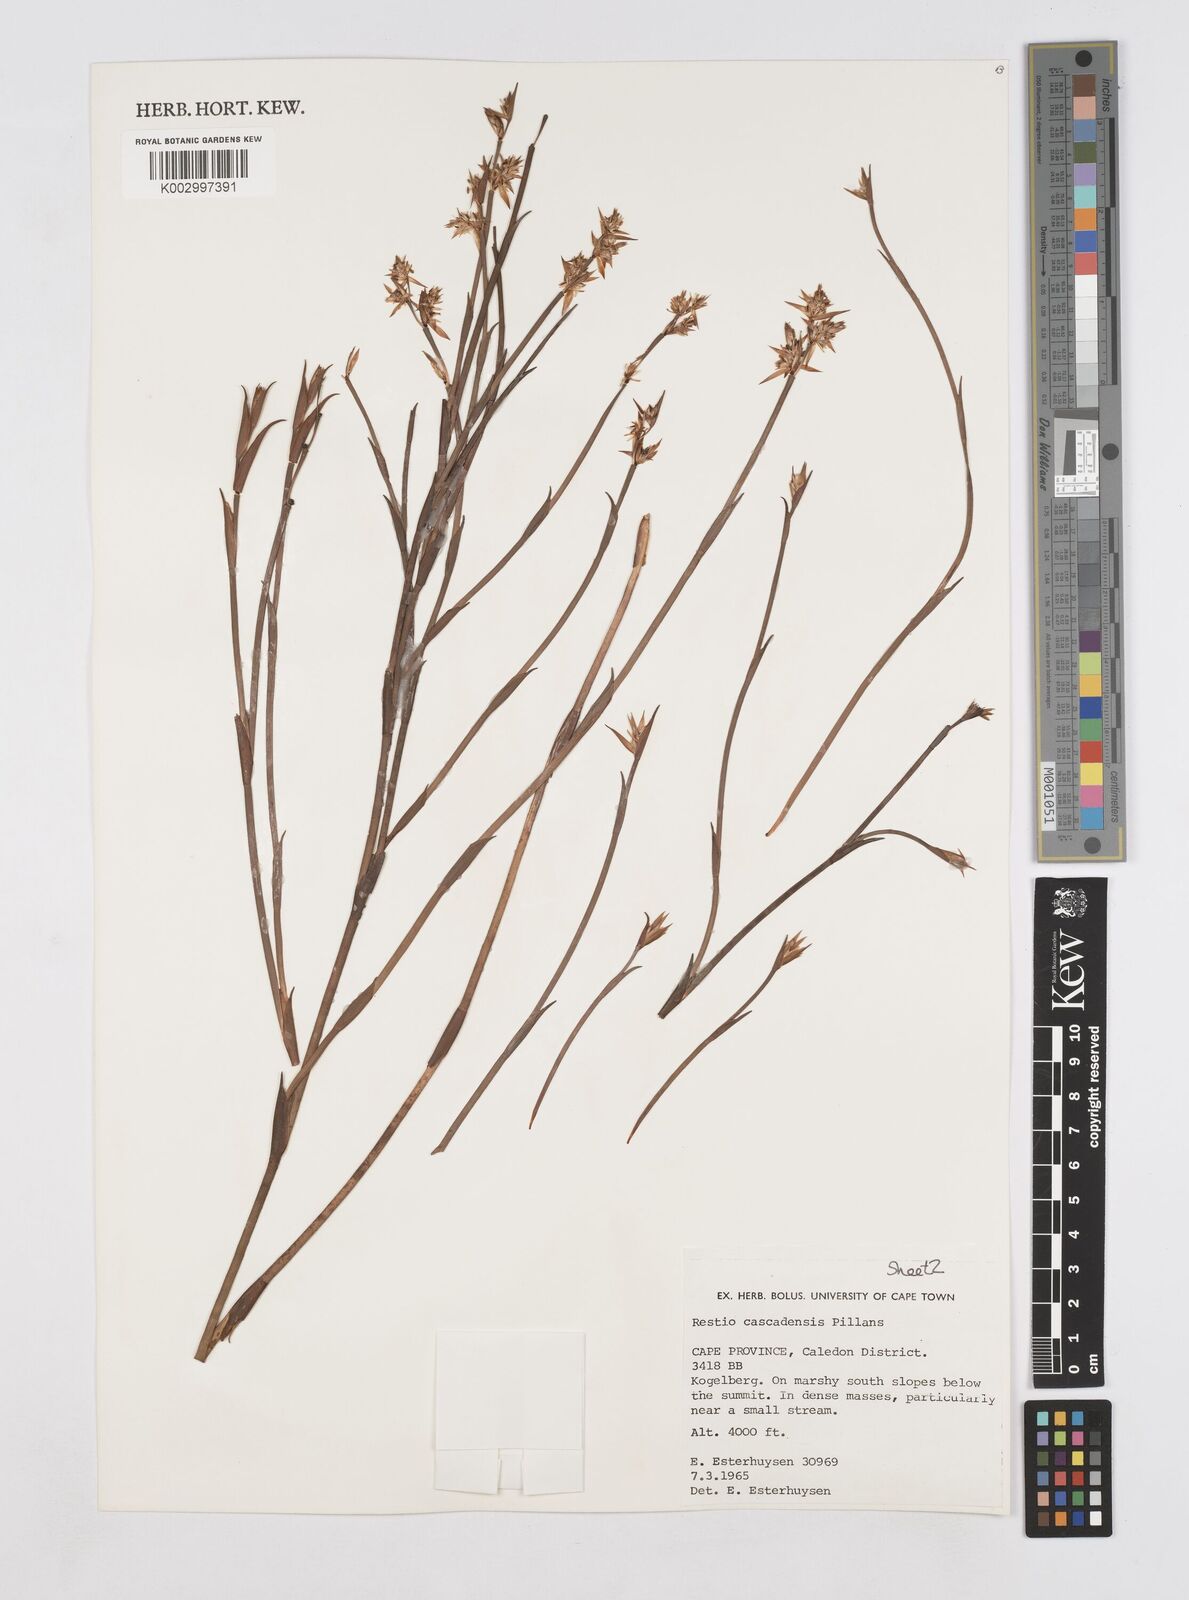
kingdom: Plantae
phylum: Tracheophyta
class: Liliopsida
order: Poales
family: Restionaceae
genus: Platycaulos
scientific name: Platycaulos cascadensis
